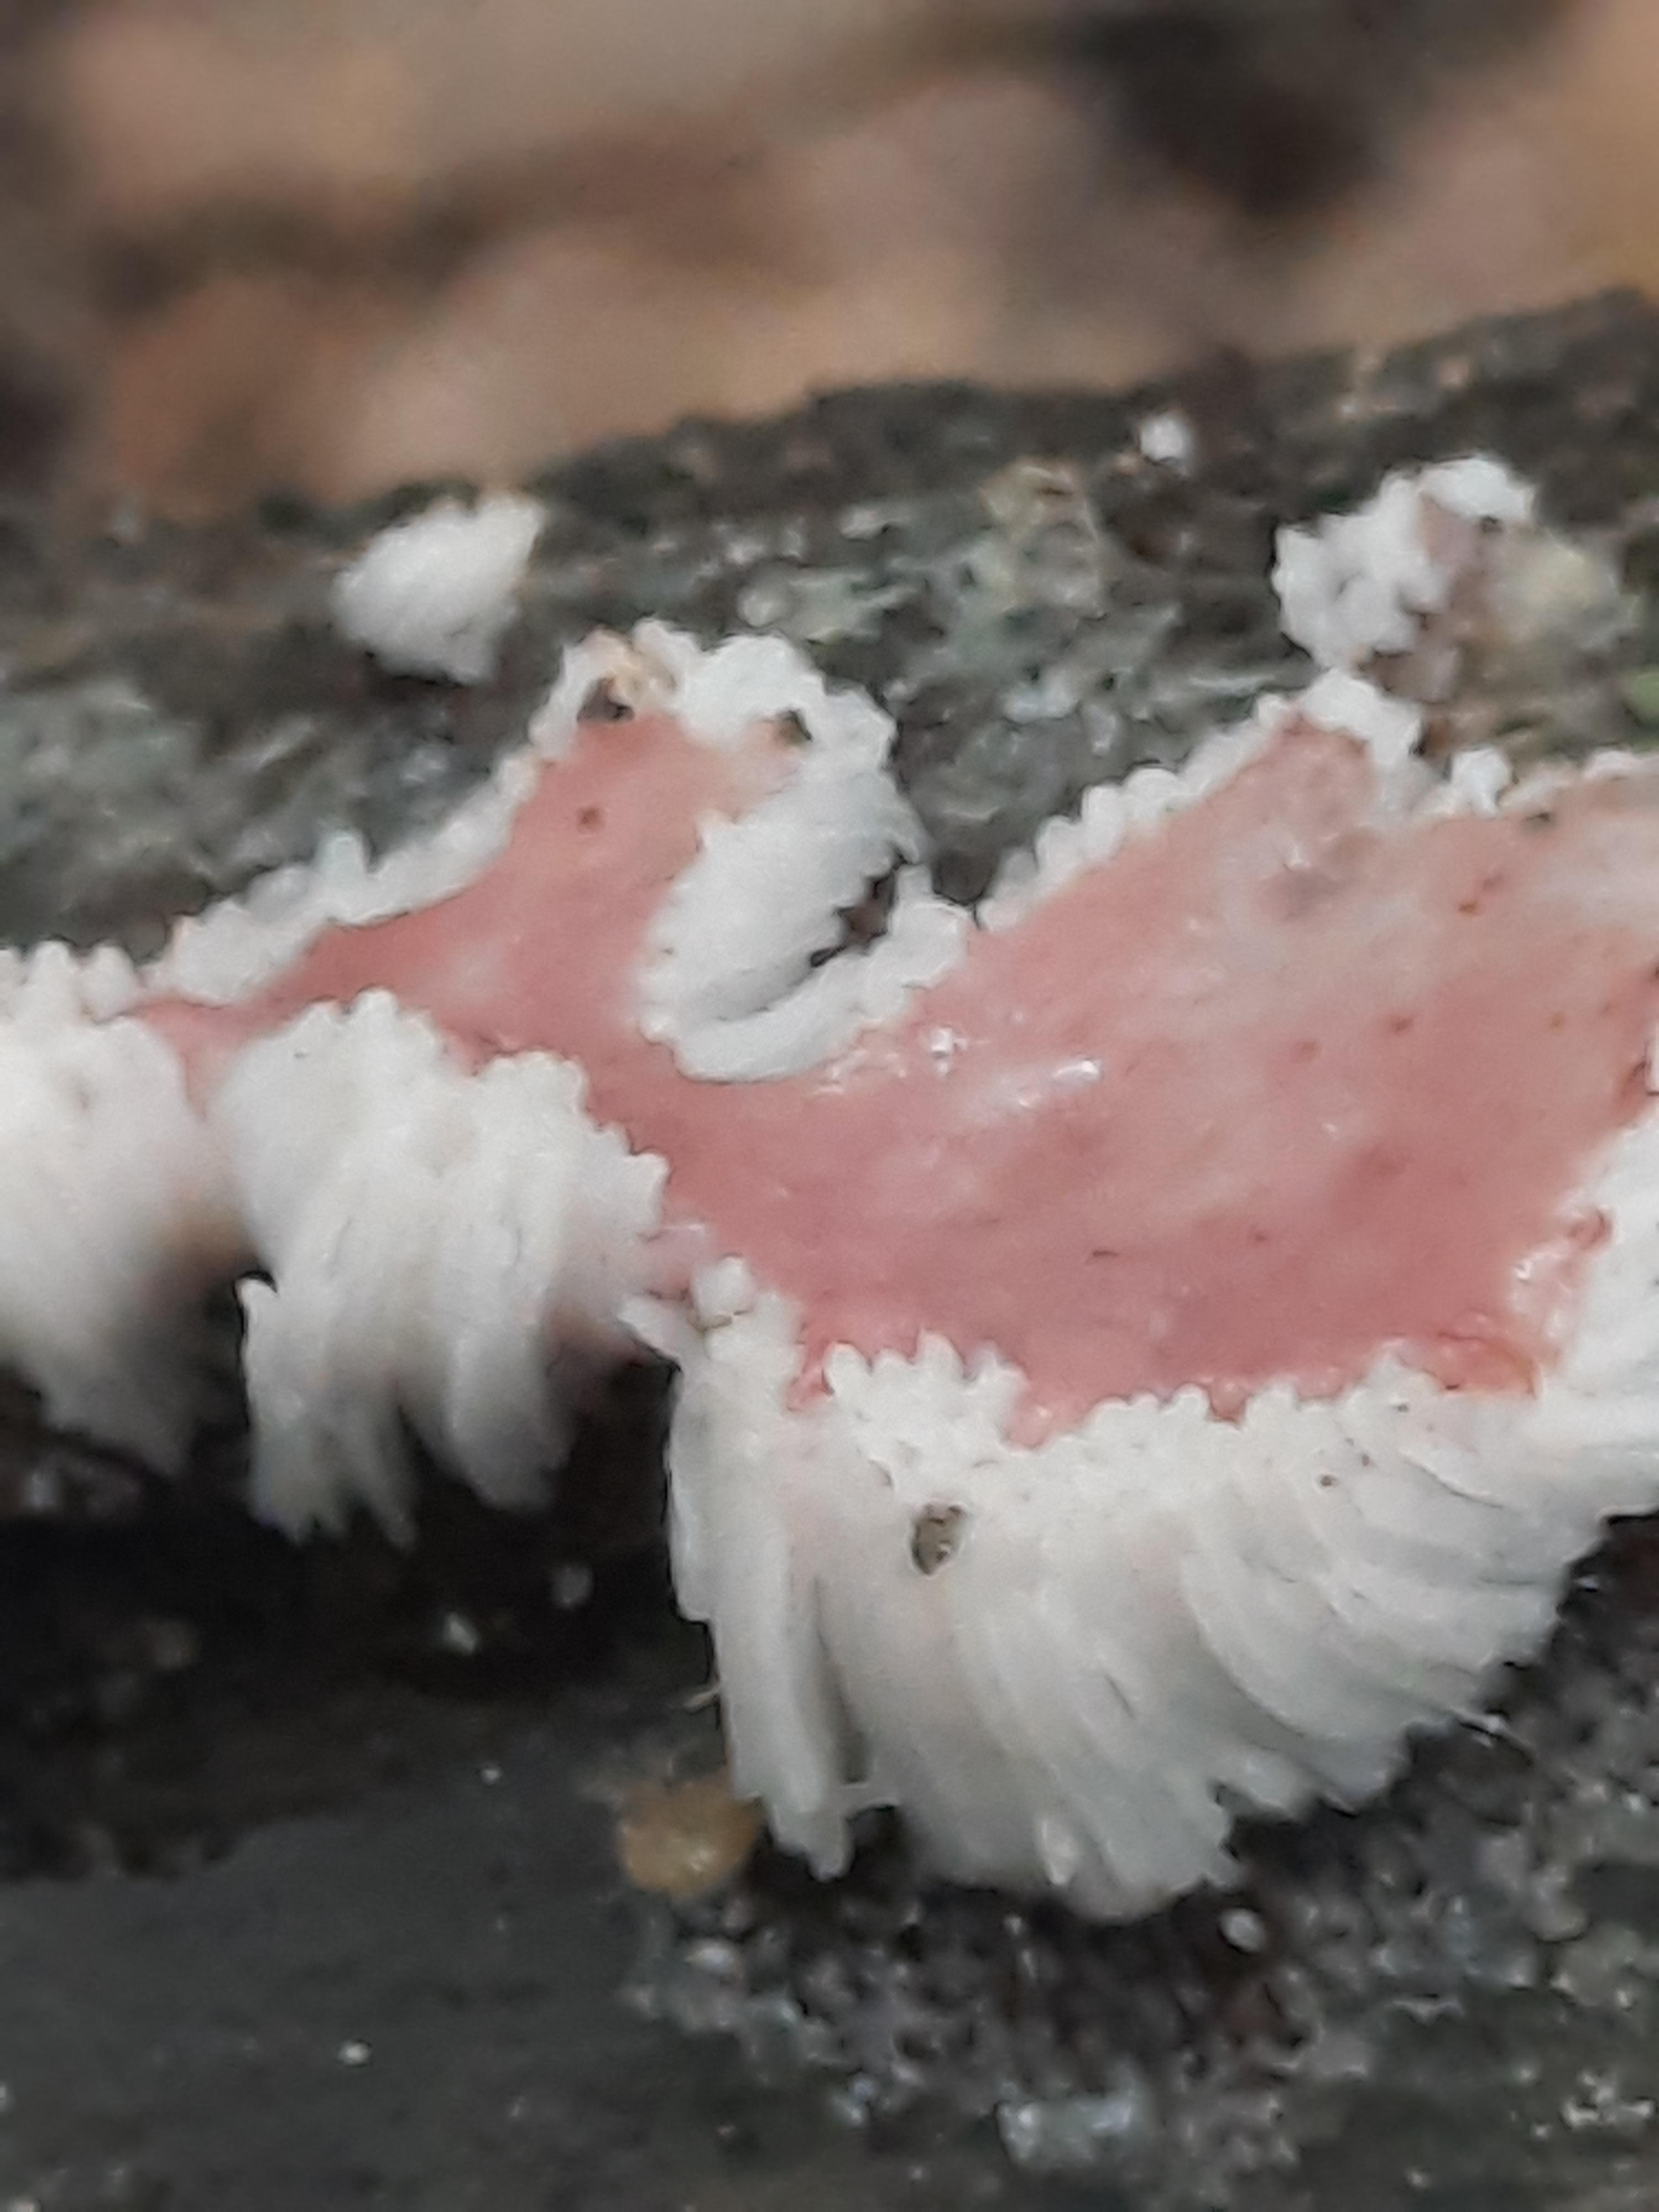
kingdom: Protozoa
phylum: Mycetozoa
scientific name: Mycetozoa
